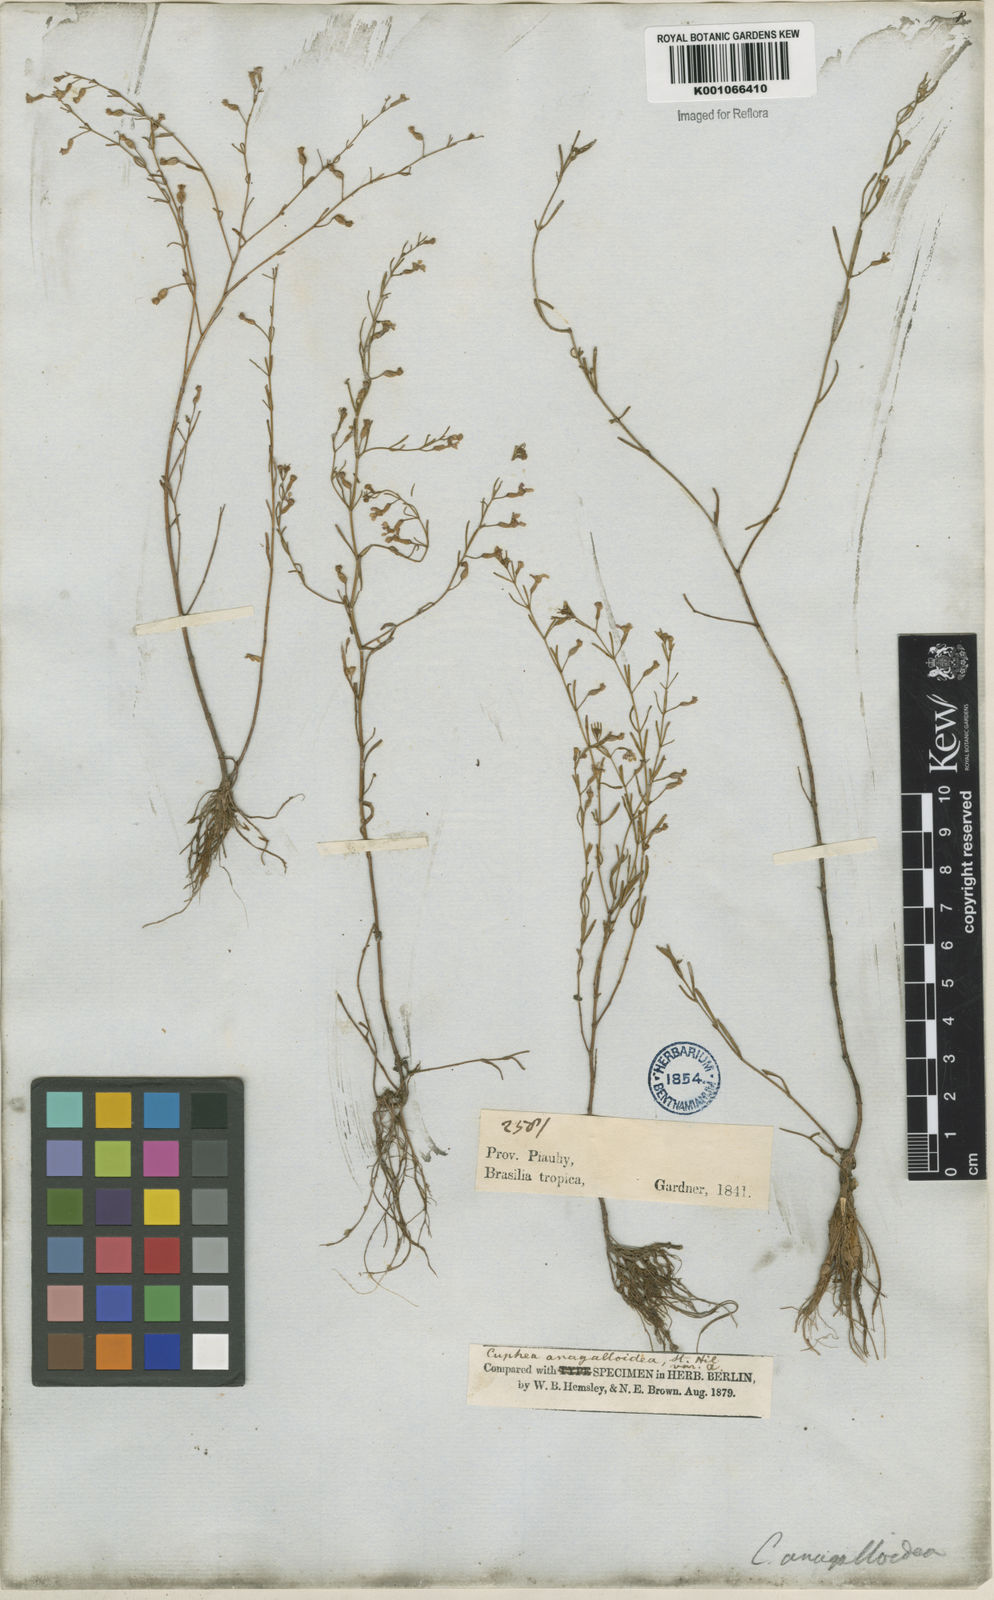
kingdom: Plantae
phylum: Tracheophyta
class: Magnoliopsida
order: Myrtales
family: Lythraceae
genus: Cuphea
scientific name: Cuphea anagalloidea
